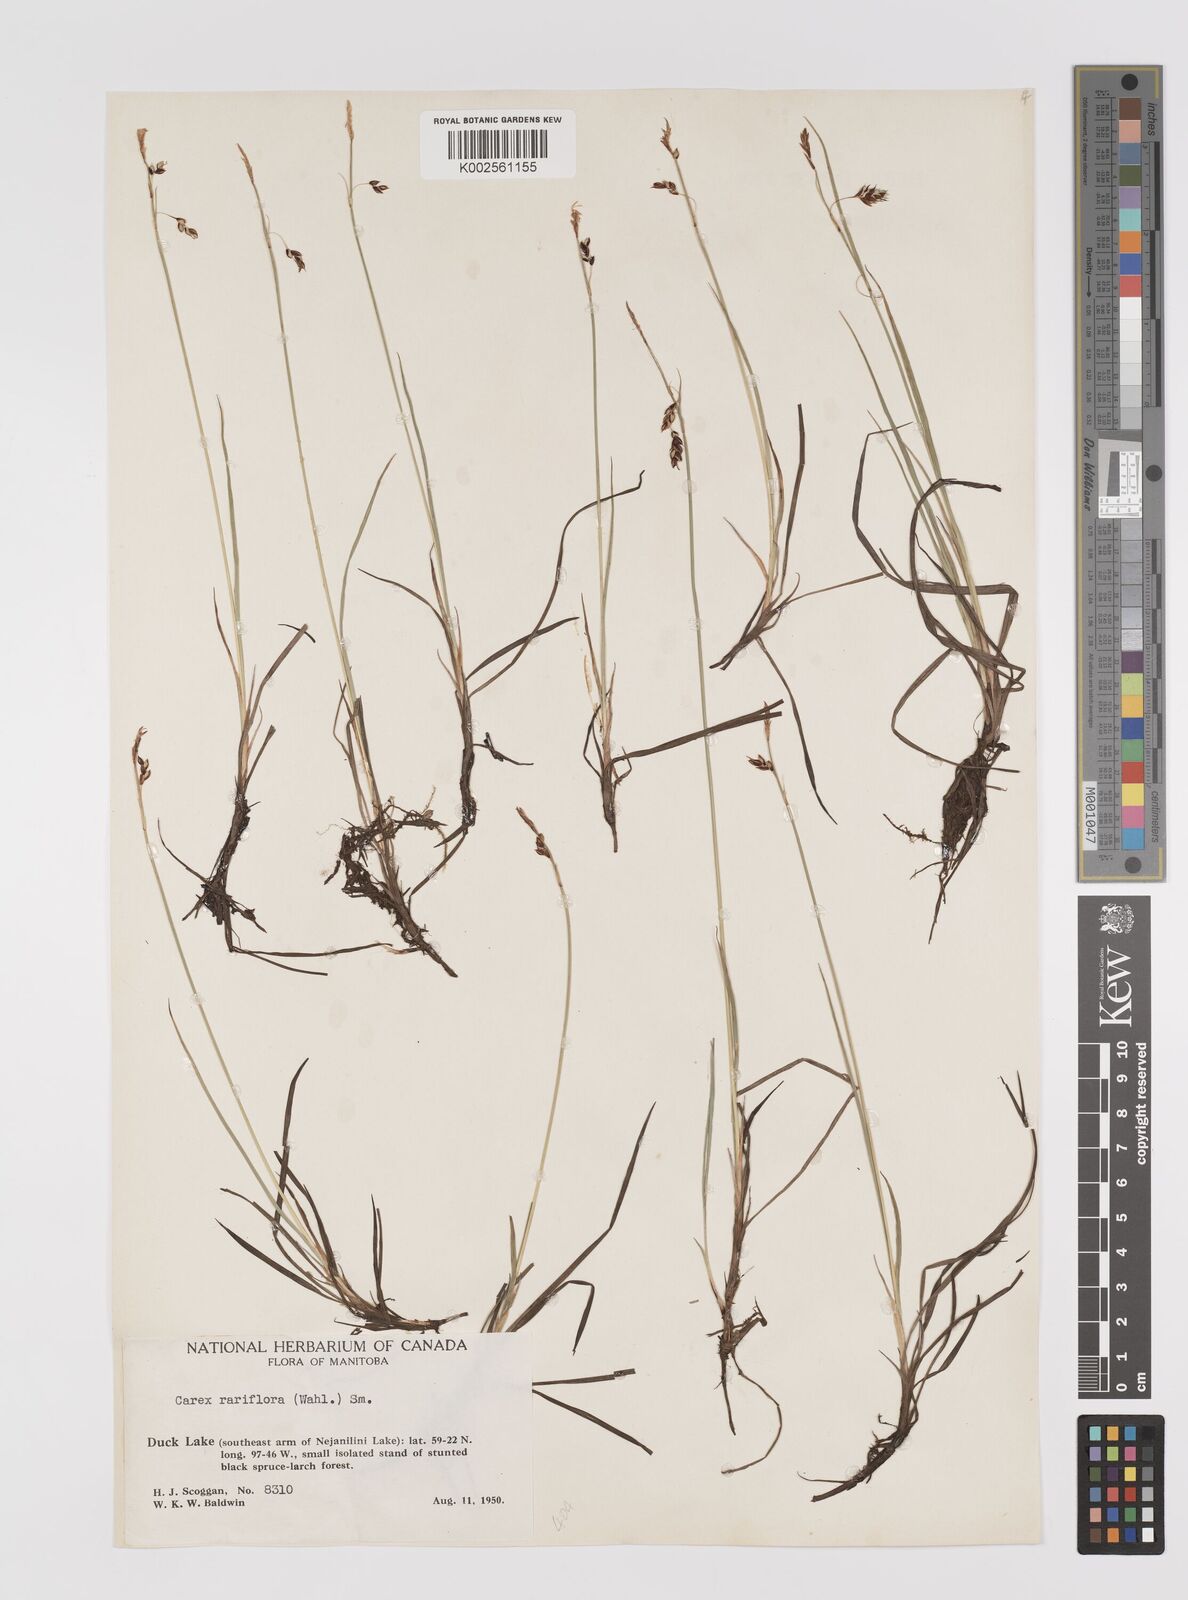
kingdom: Plantae
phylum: Tracheophyta
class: Liliopsida
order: Poales
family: Cyperaceae
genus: Carex
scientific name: Carex rariflora
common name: Loose-flowered alpine sedge
